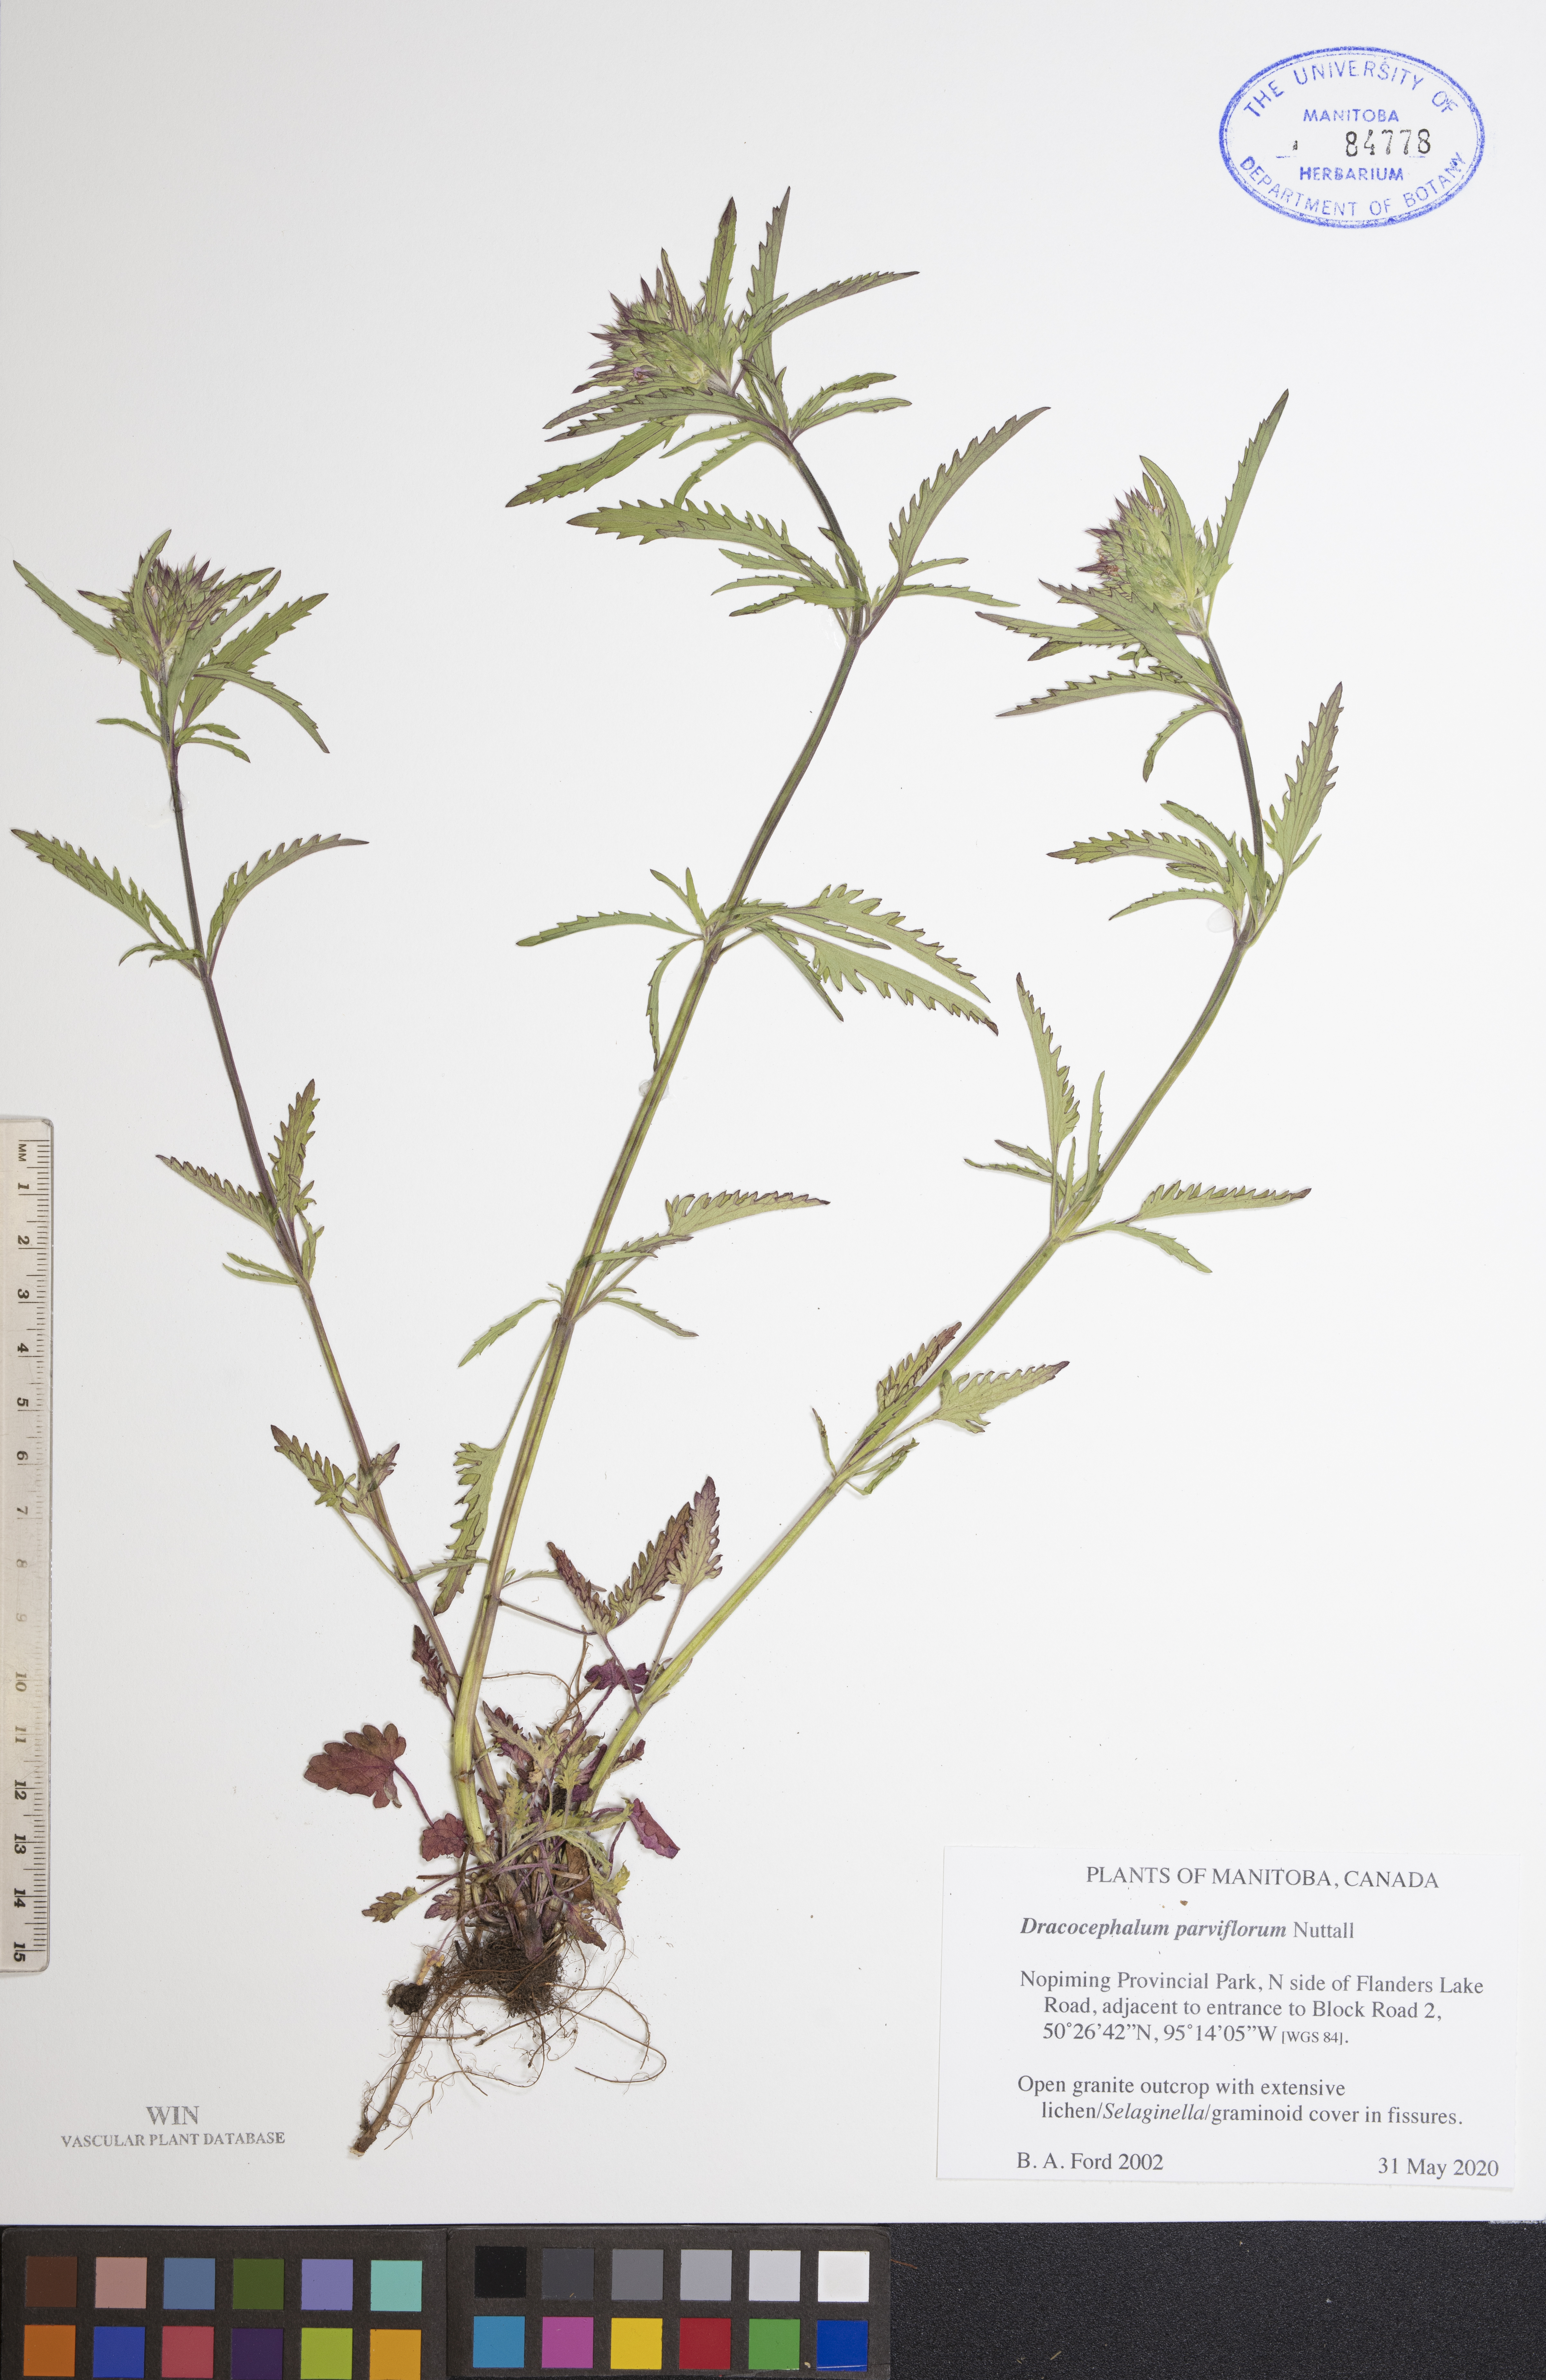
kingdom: Plantae
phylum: Tracheophyta
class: Magnoliopsida
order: Lamiales
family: Lamiaceae
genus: Dracocephalum
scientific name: Dracocephalum parviflorum
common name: American dragonhead
